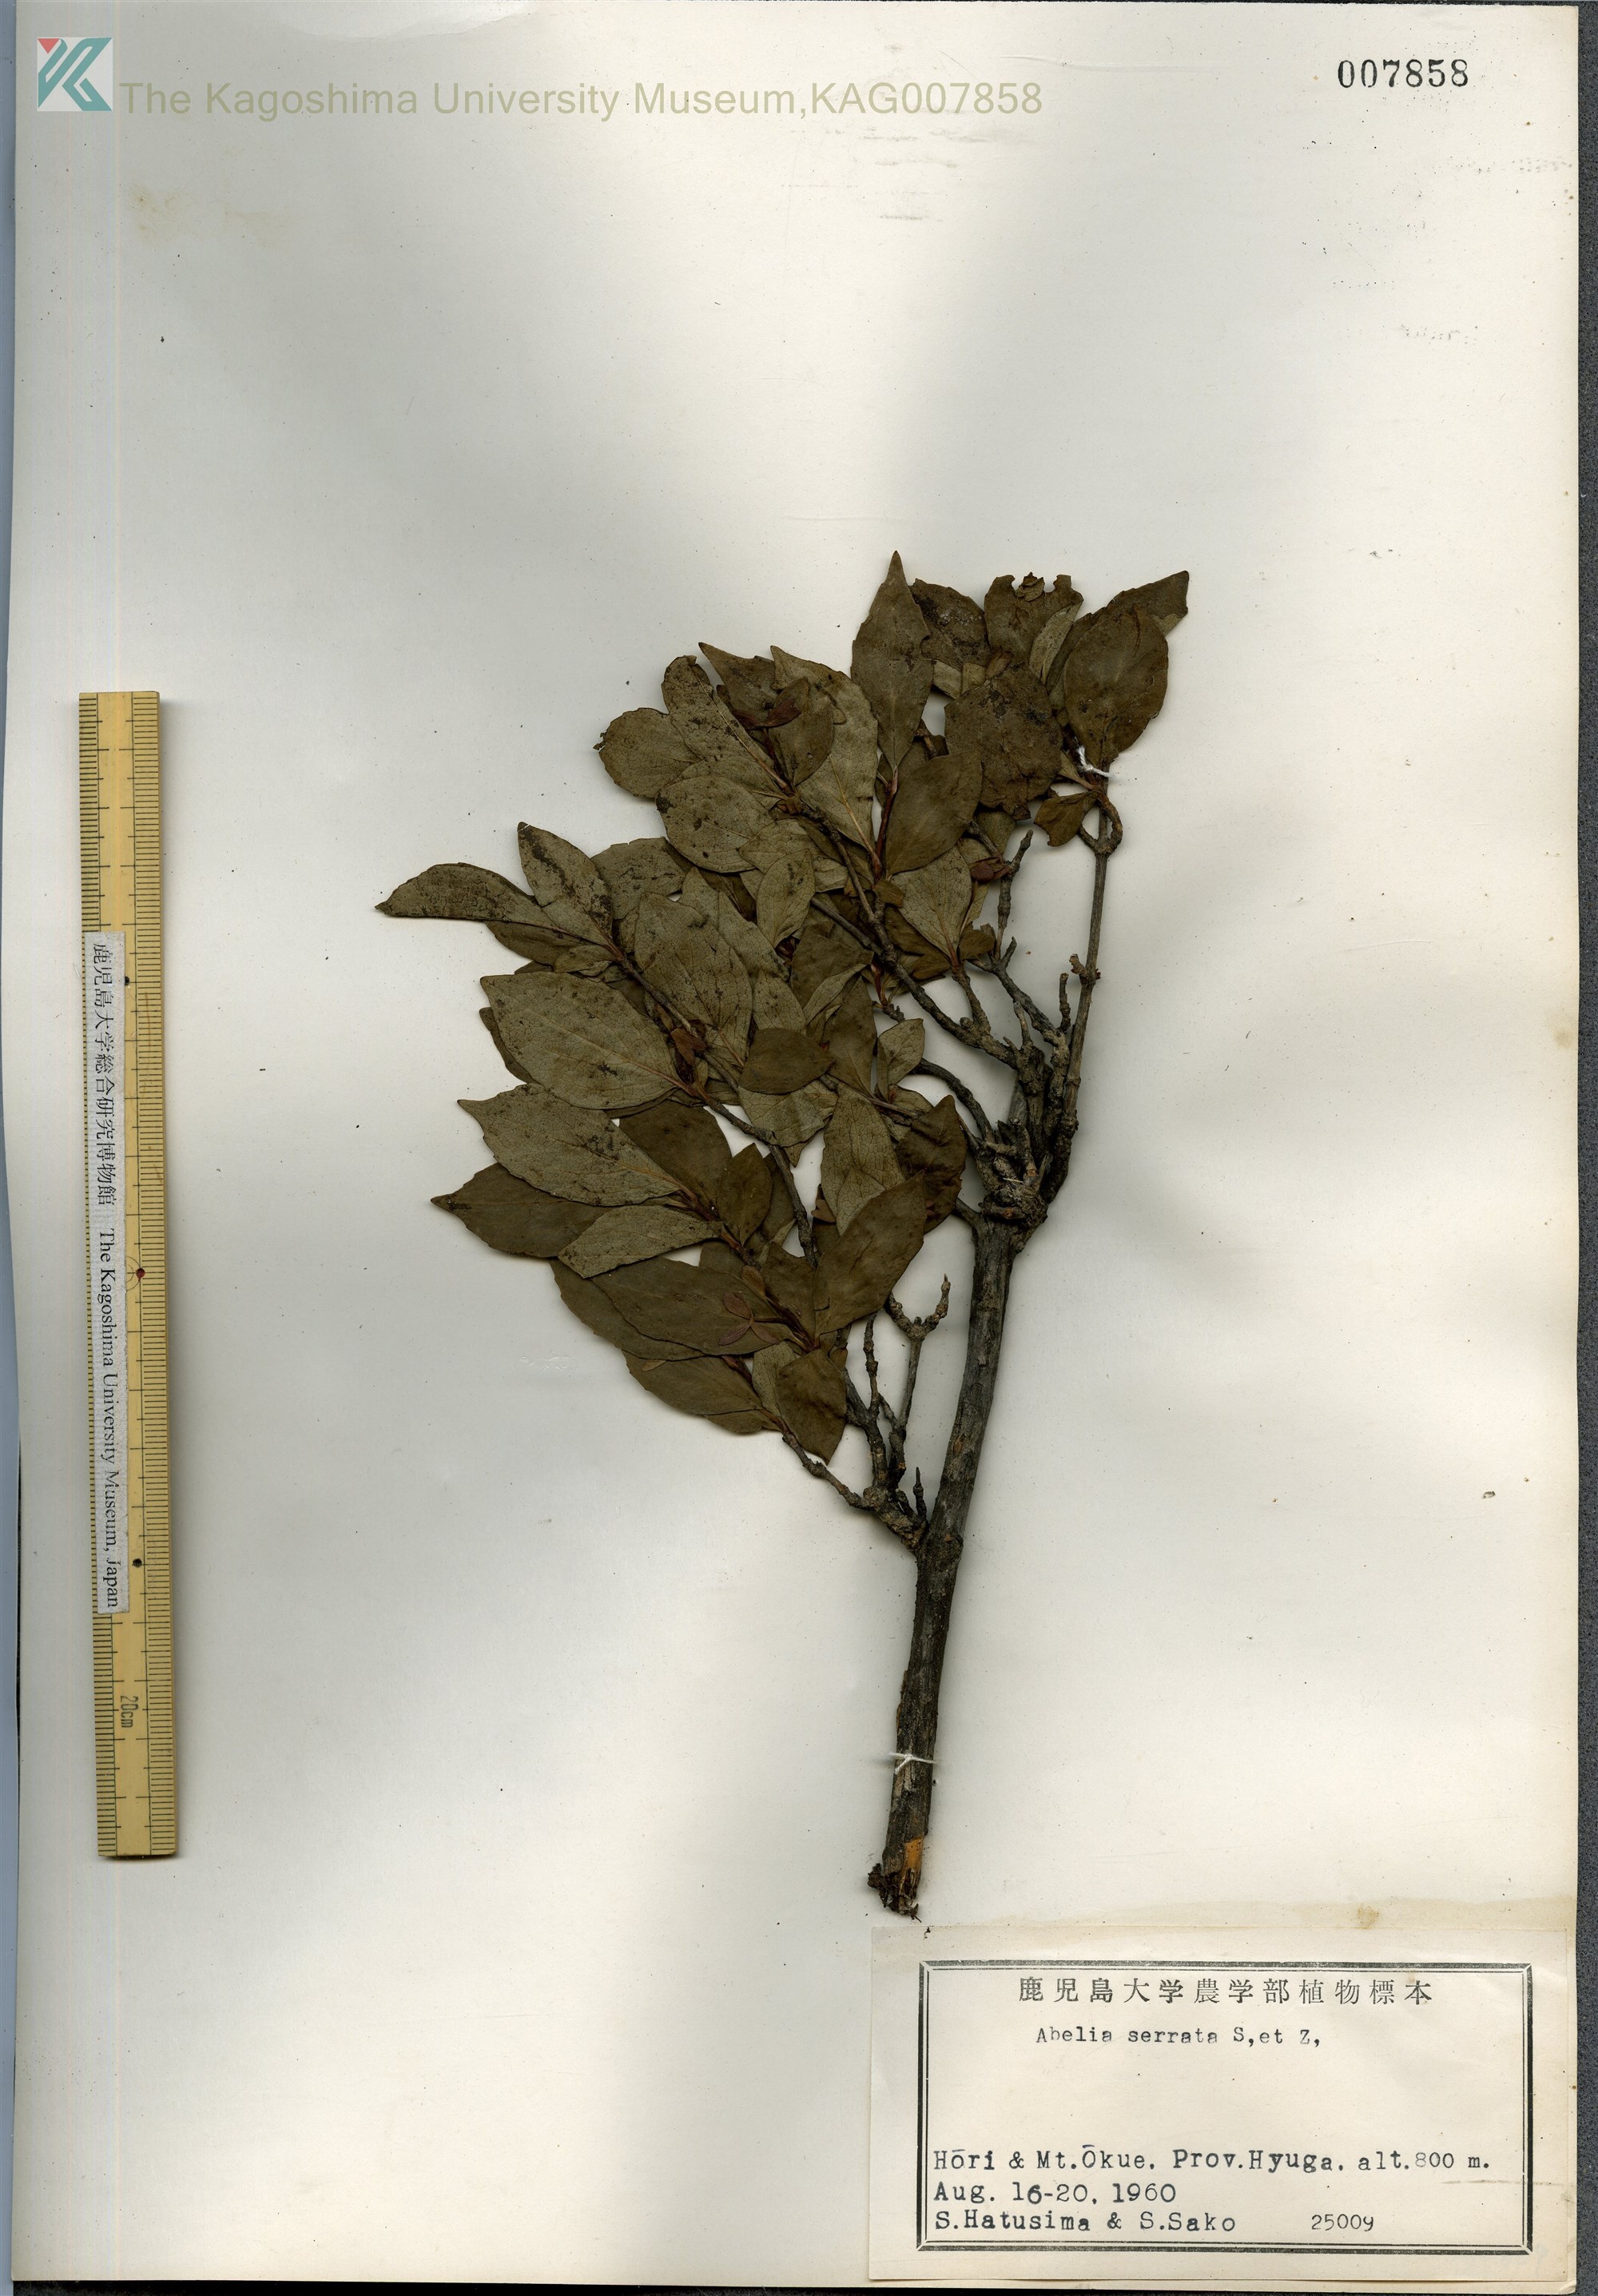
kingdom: Plantae
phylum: Tracheophyta
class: Magnoliopsida
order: Dipsacales
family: Caprifoliaceae
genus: Diabelia
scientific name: Diabelia serrata
